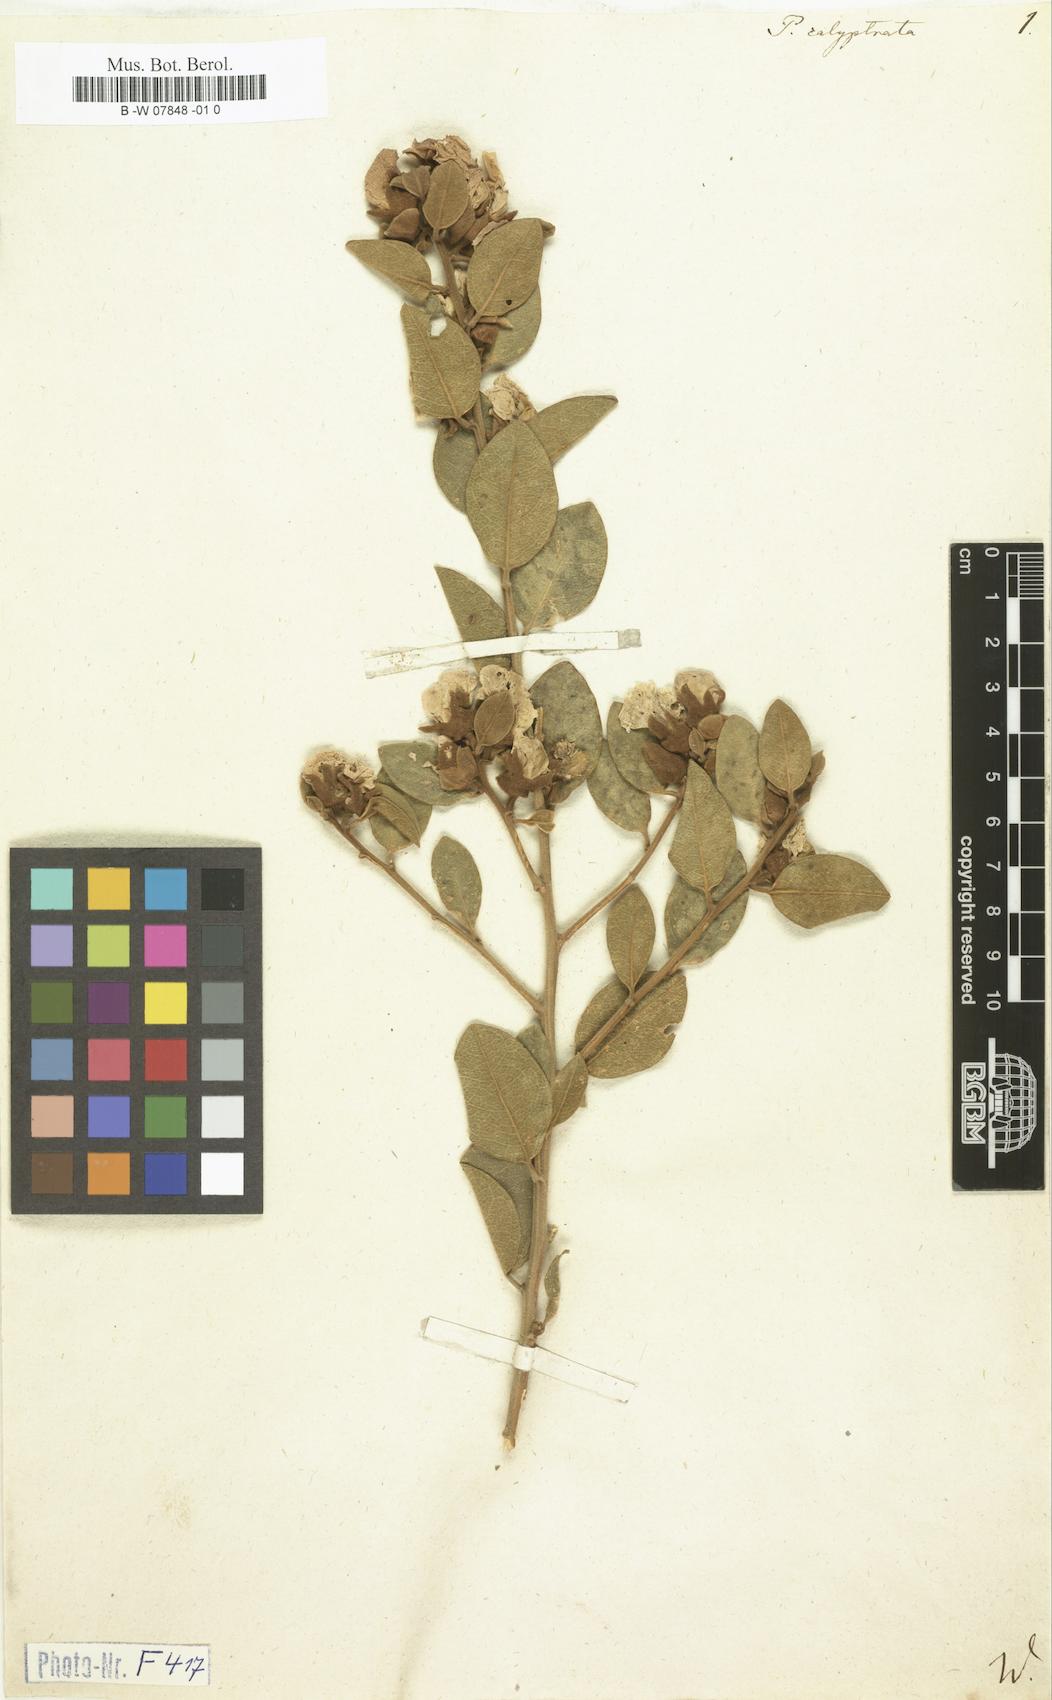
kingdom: Plantae
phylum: Tracheophyta
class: Magnoliopsida
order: Fabales
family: Fabaceae
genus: Podalyria
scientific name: Podalyria calyptrata
